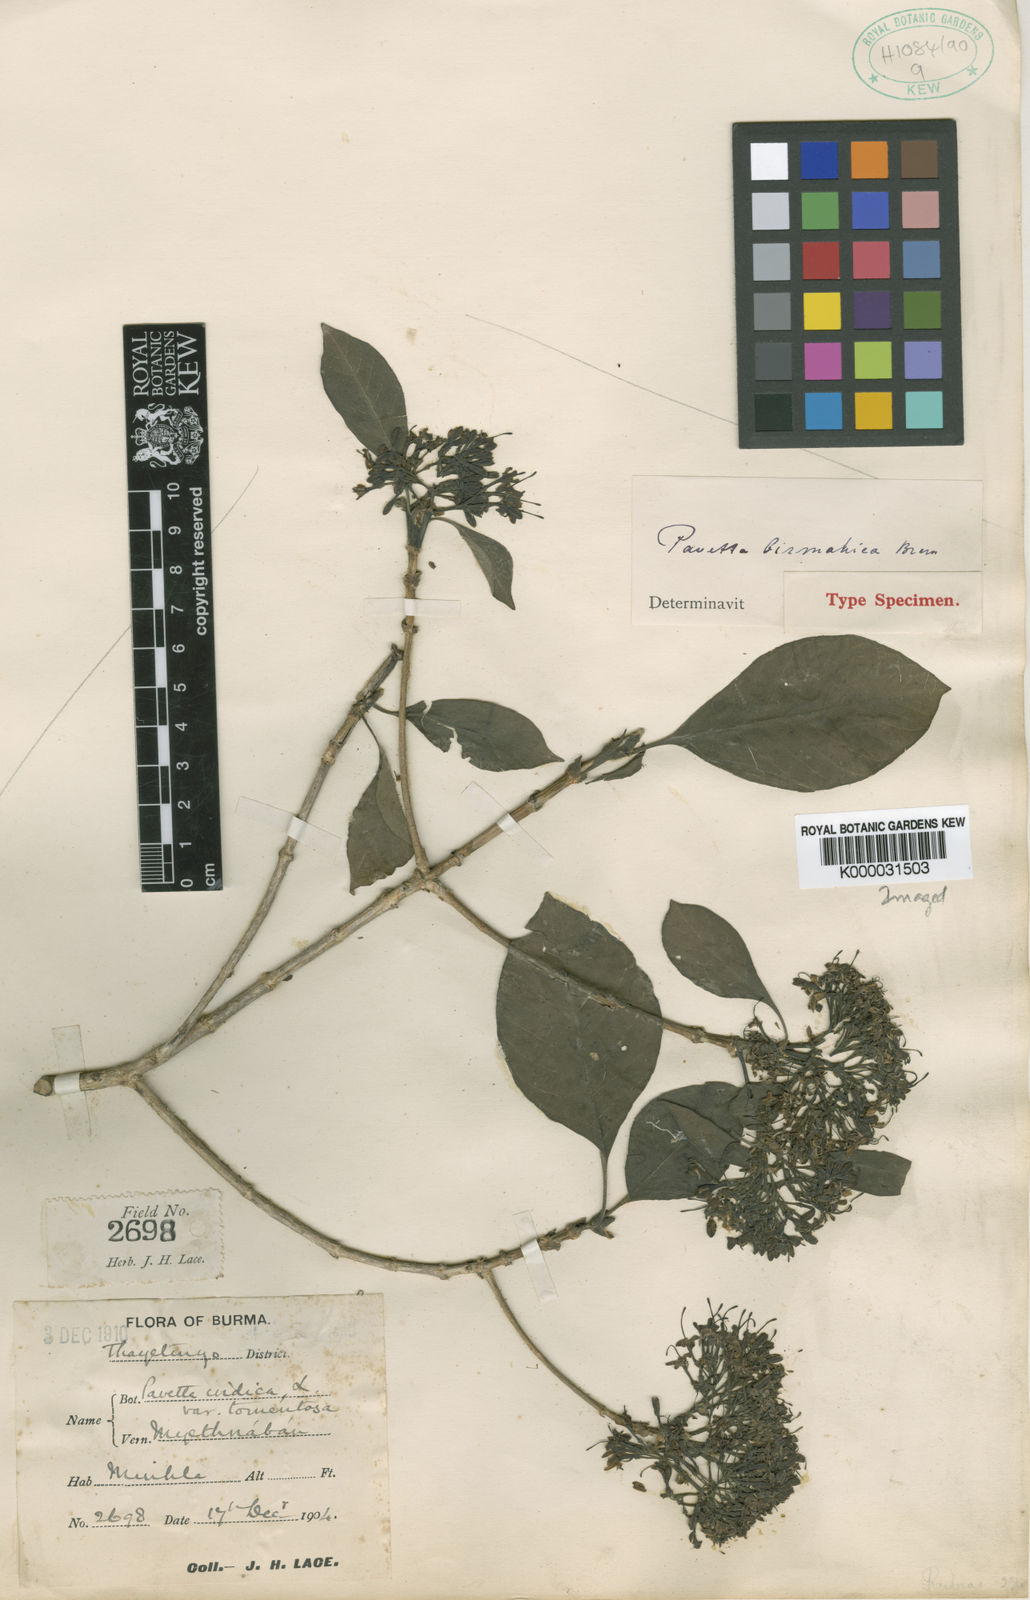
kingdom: Plantae
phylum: Tracheophyta
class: Magnoliopsida
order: Gentianales
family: Rubiaceae
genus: Pavetta
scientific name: Pavetta fruticosa
